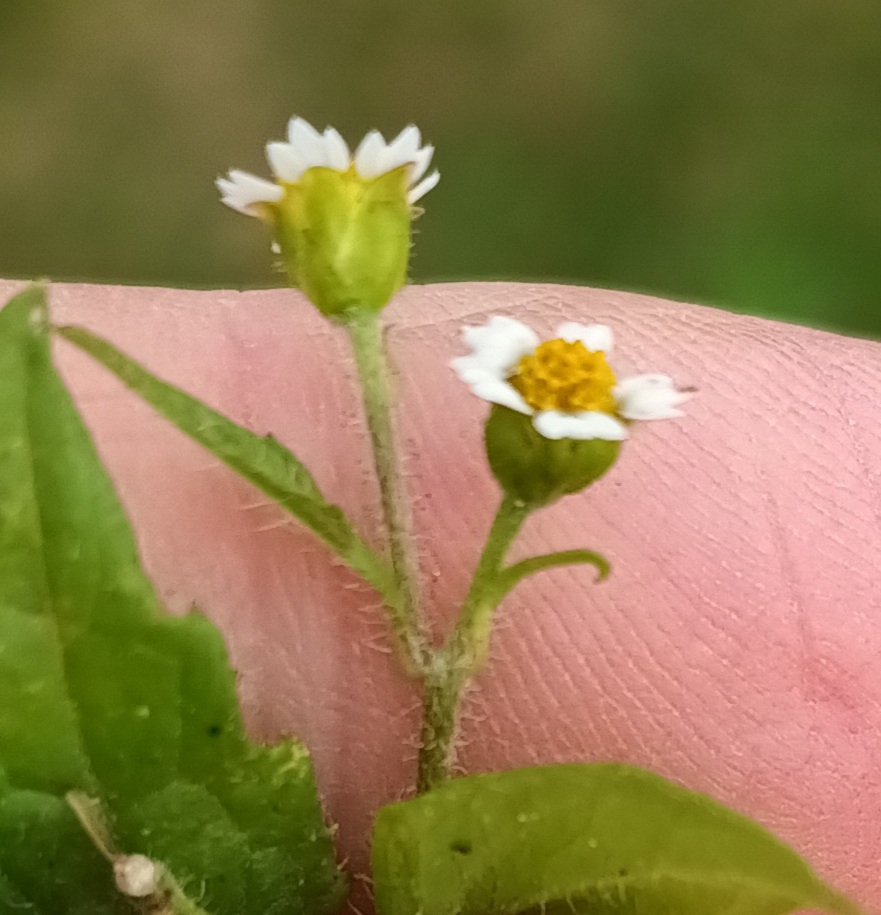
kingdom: Plantae
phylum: Tracheophyta
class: Magnoliopsida
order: Asterales
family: Asteraceae
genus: Galinsoga
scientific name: Galinsoga quadriradiata
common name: Kirtel-kortstråle
